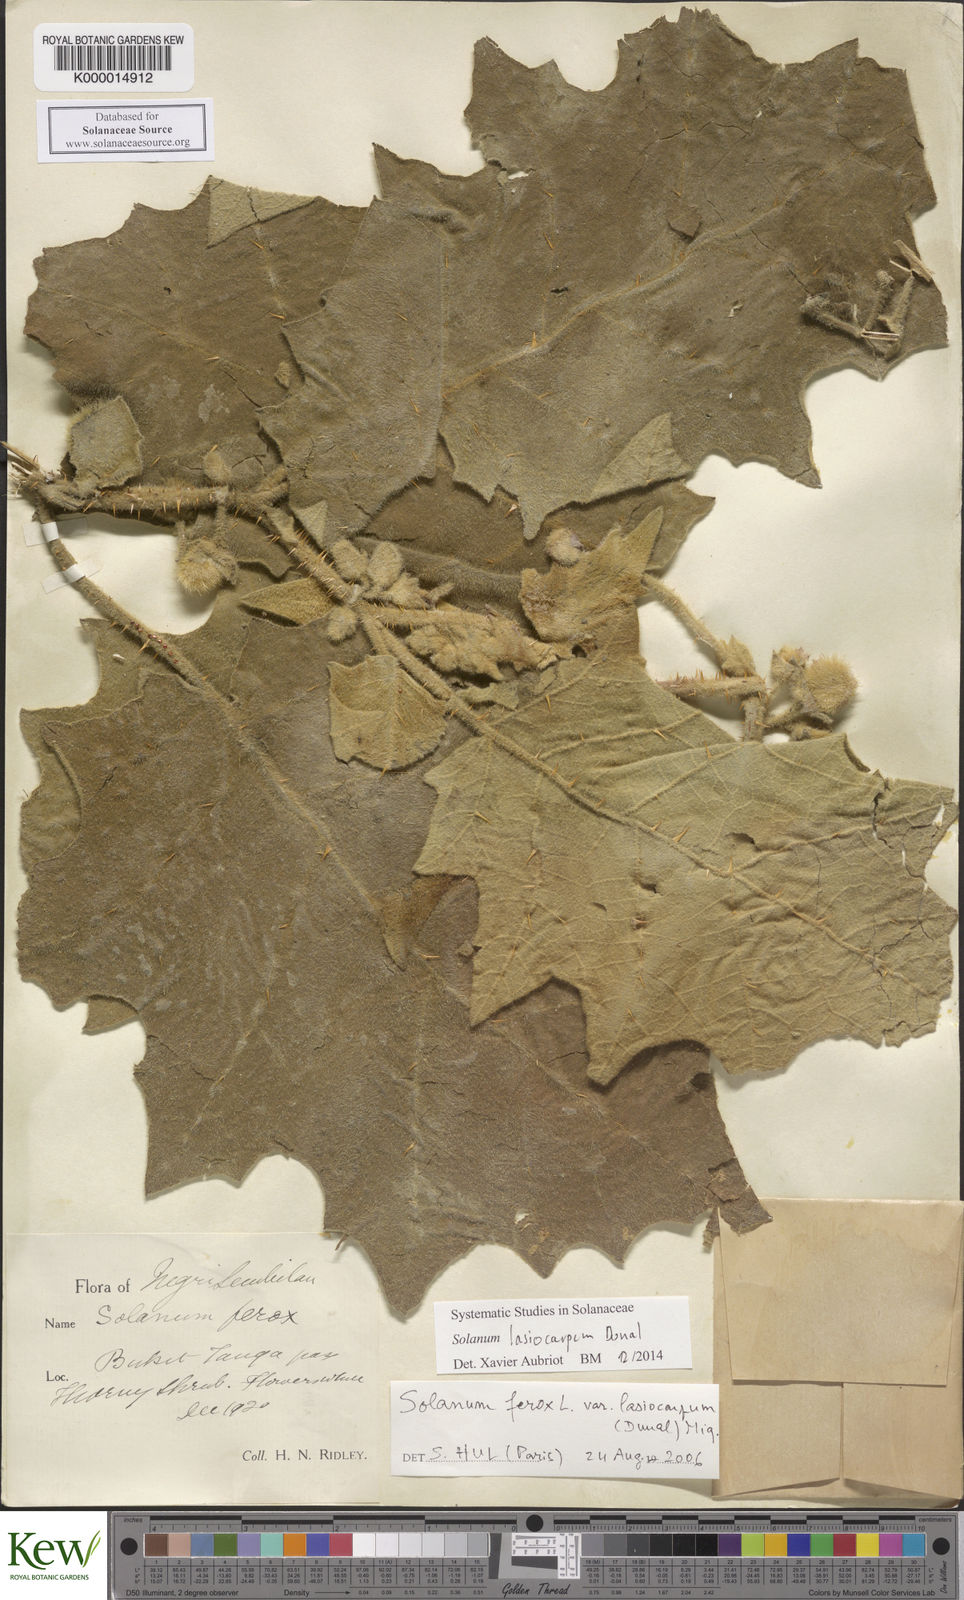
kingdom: Plantae
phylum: Tracheophyta
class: Magnoliopsida
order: Solanales
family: Solanaceae
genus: Solanum
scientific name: Solanum lasiocarpum
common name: Indian nightshade
